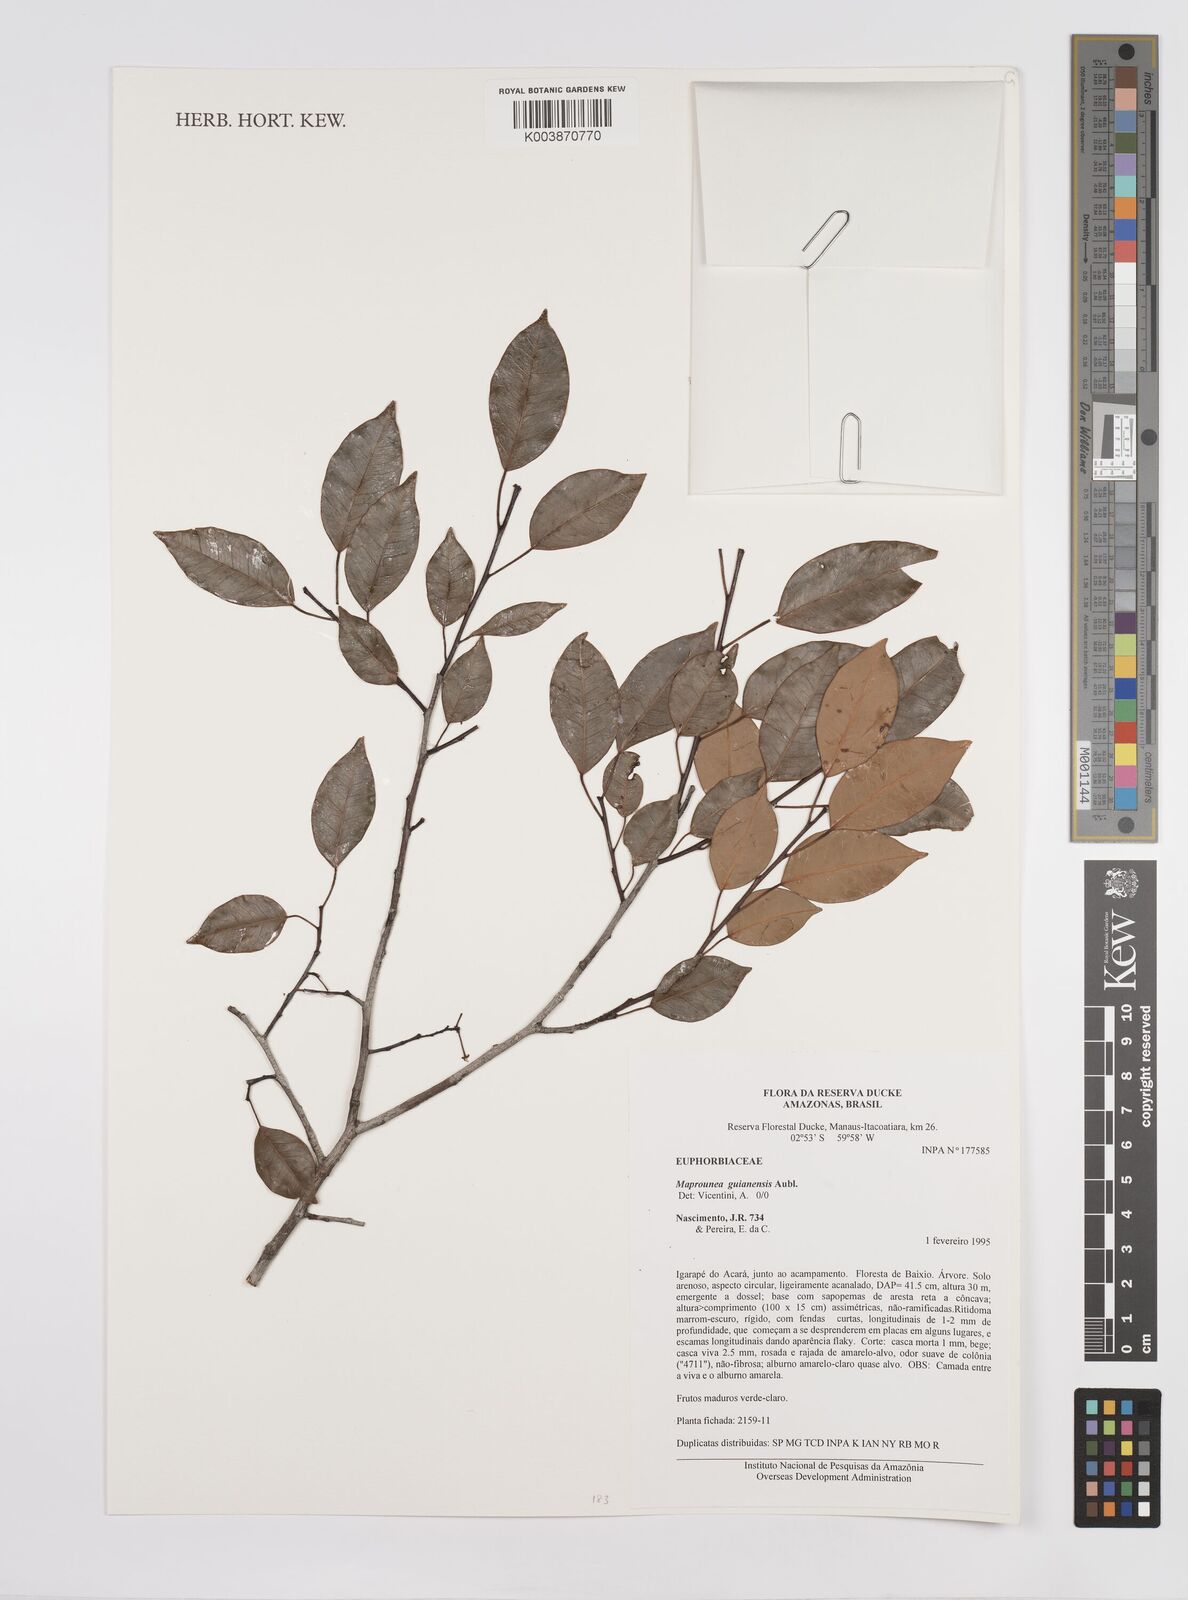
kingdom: Plantae
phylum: Tracheophyta
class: Magnoliopsida
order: Malpighiales
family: Euphorbiaceae
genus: Maprounea
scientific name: Maprounea guianensis
